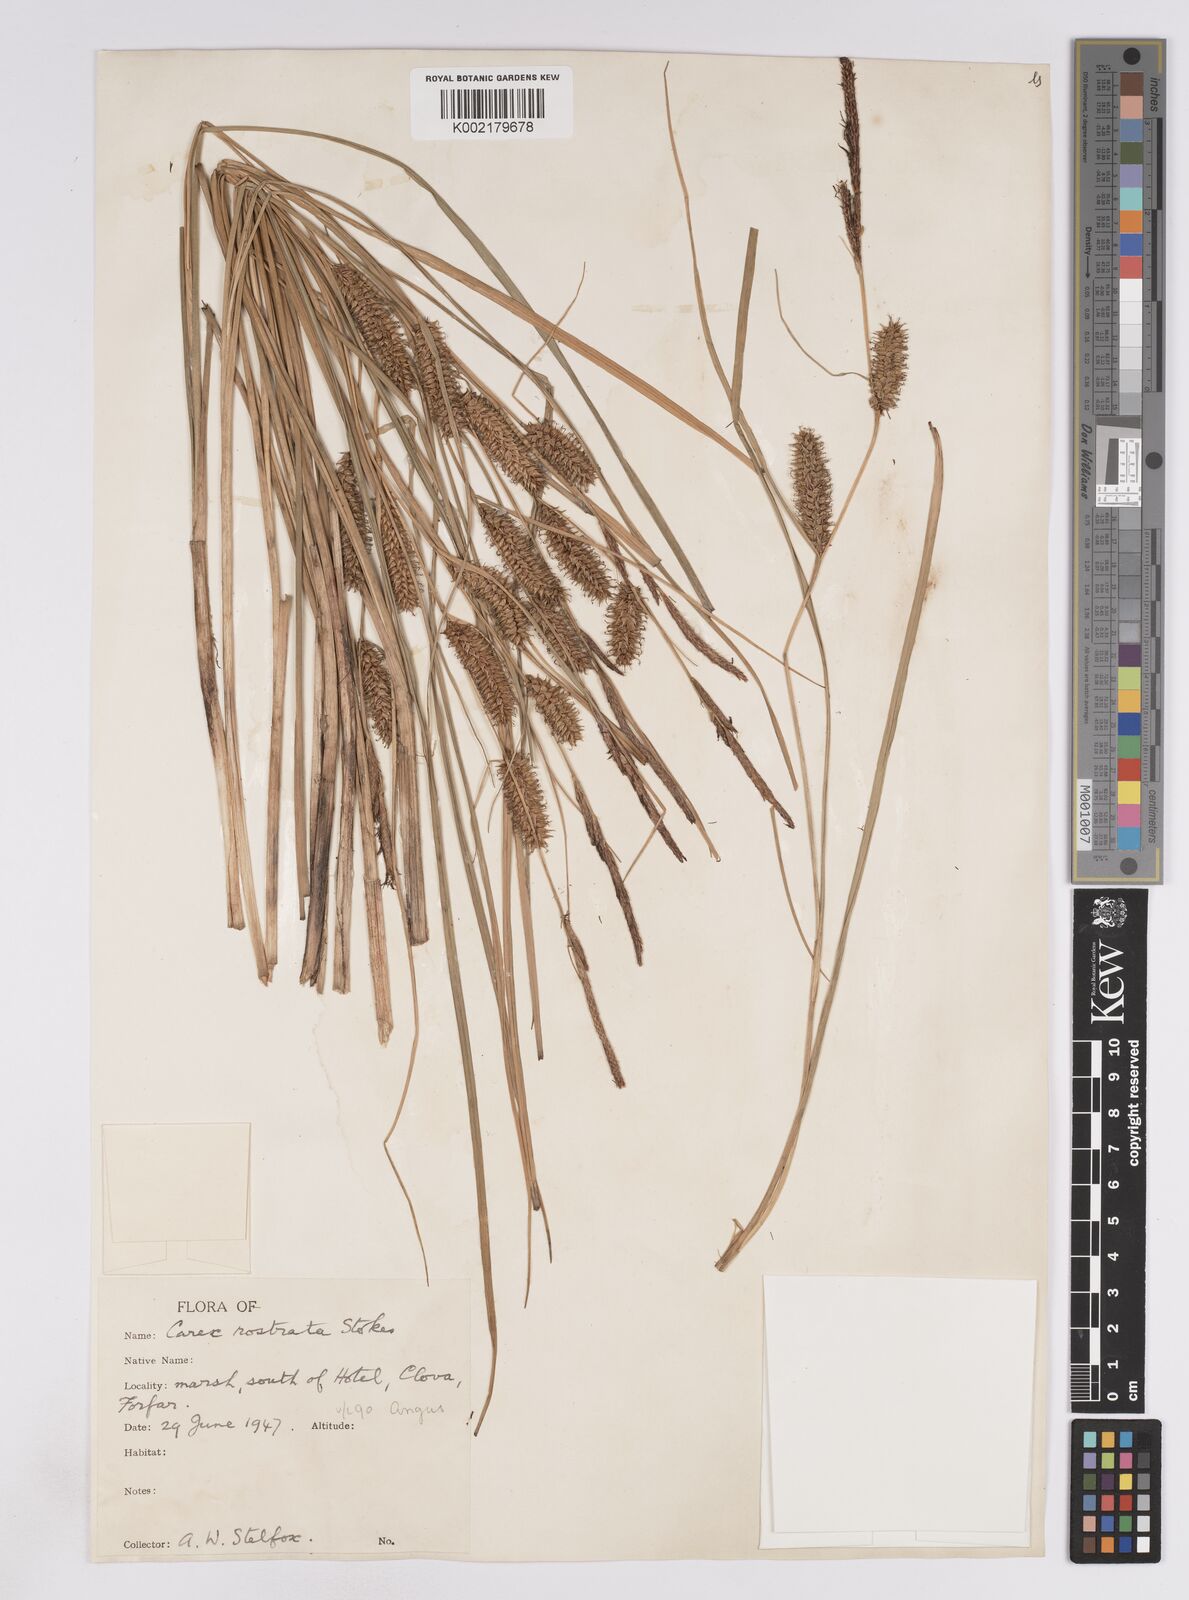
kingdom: Plantae
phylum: Tracheophyta
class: Liliopsida
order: Poales
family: Cyperaceae
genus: Carex
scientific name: Carex rostrata
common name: Bottle sedge
